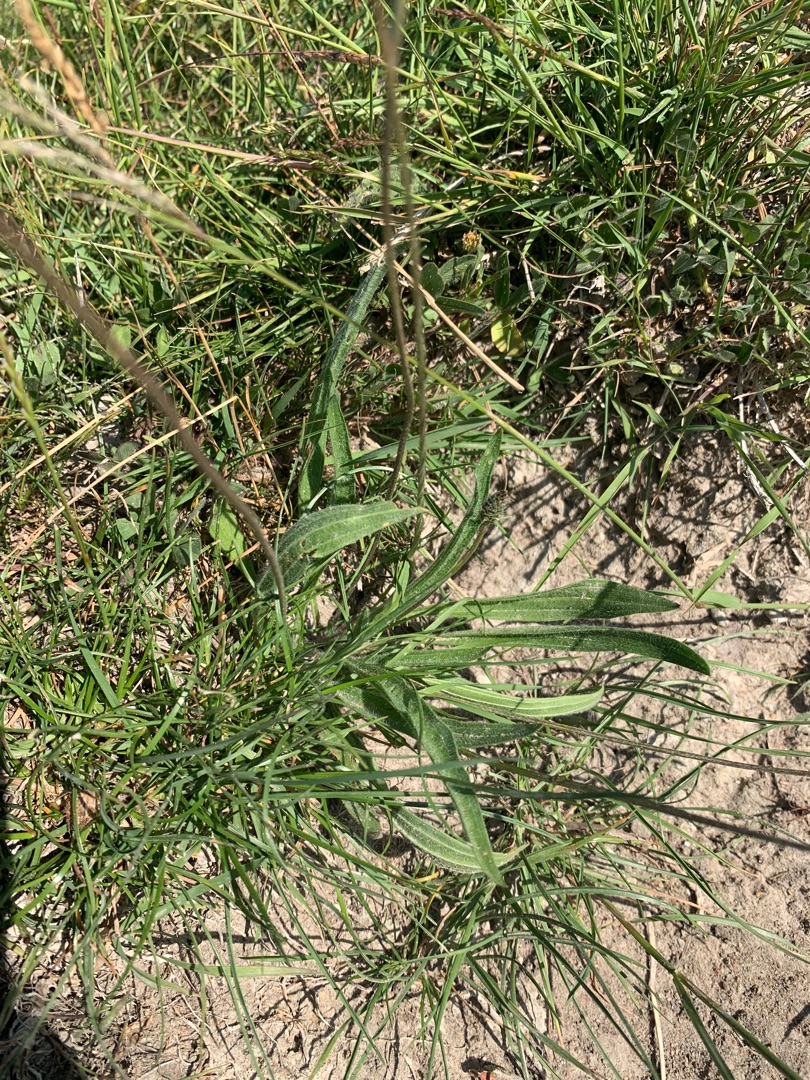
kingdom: Plantae
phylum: Tracheophyta
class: Magnoliopsida
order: Lamiales
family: Plantaginaceae
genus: Plantago
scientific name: Plantago lanceolata
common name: Lancet-vejbred
